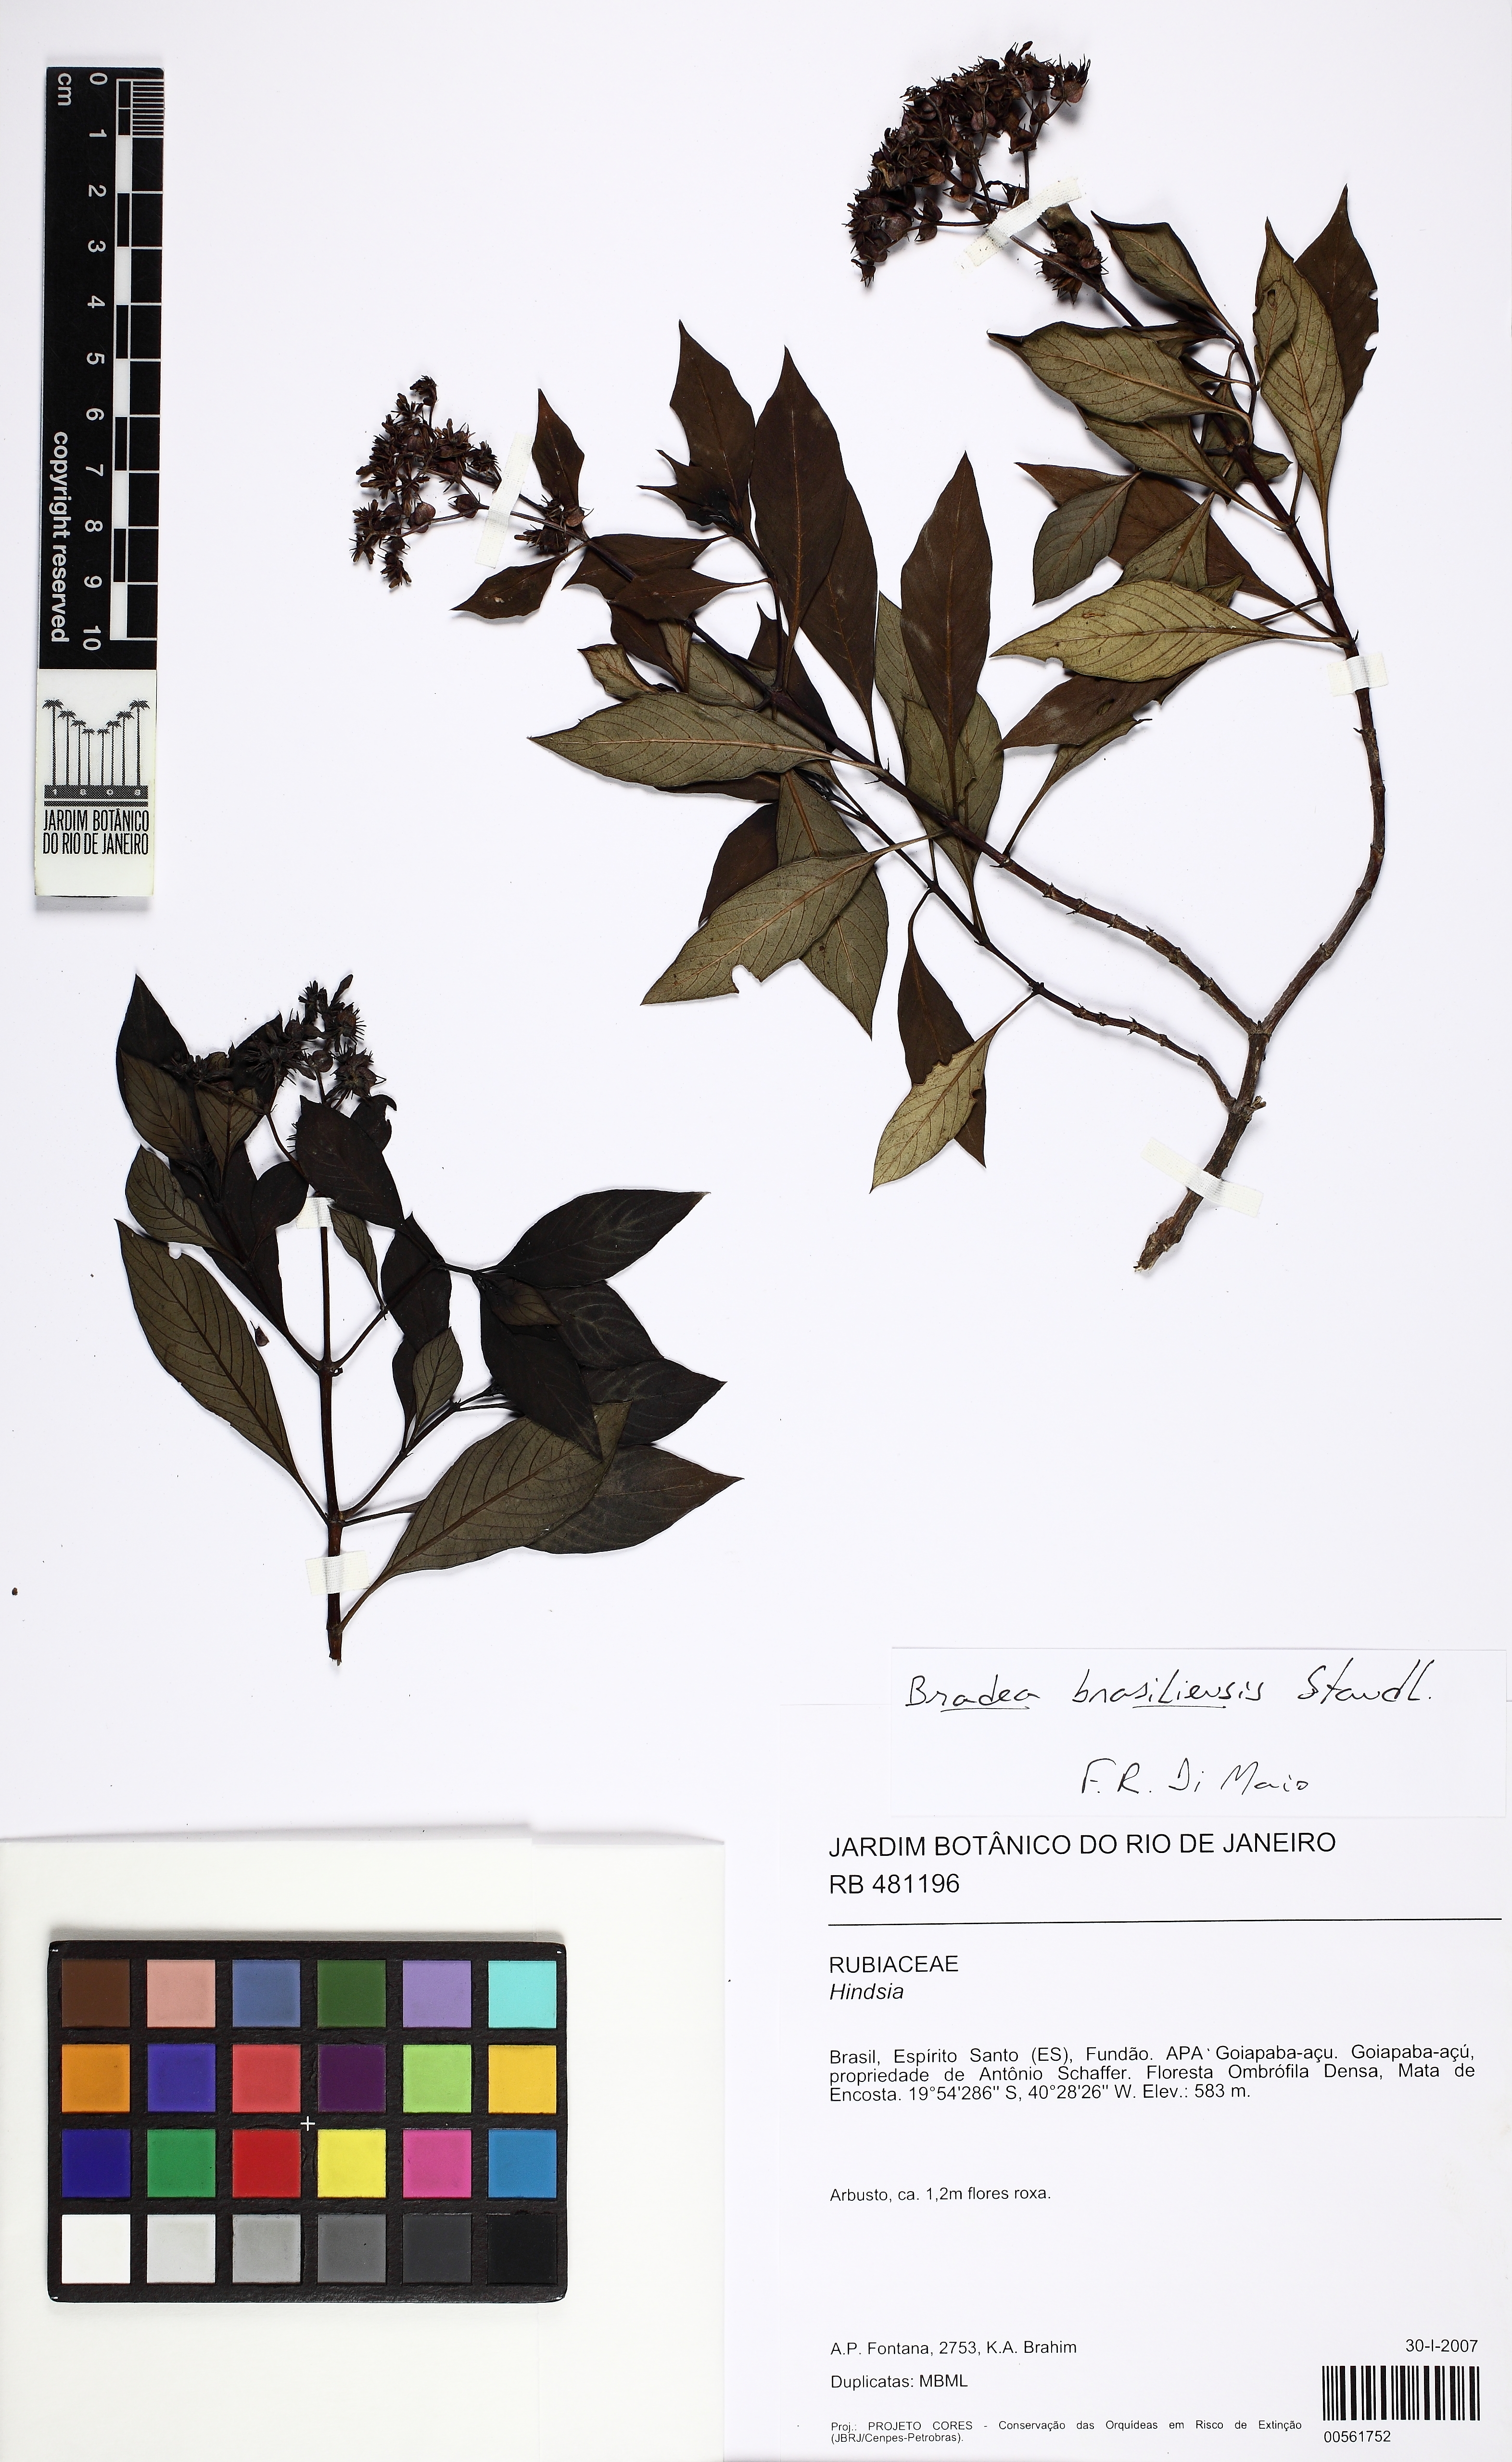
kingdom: Plantae
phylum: Tracheophyta
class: Magnoliopsida
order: Gentianales
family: Rubiaceae
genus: Bradea
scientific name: Bradea brasiliensis
